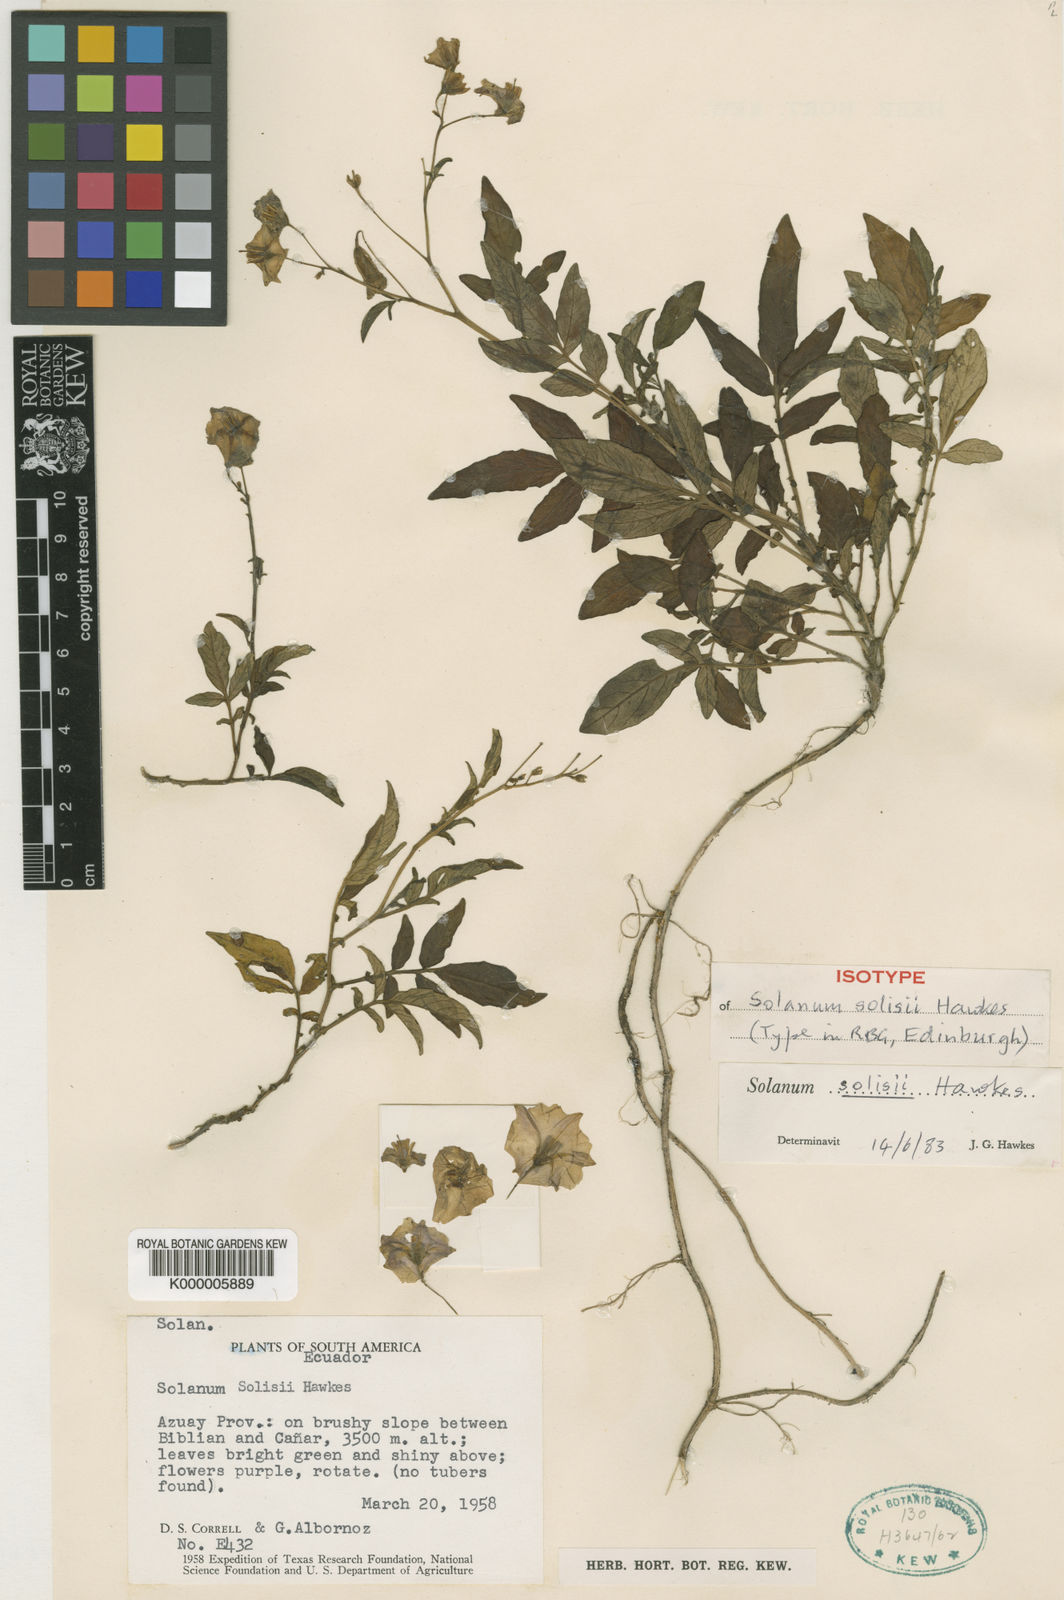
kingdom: Plantae
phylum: Tracheophyta
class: Magnoliopsida
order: Solanales
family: Solanaceae
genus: Solanum
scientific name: Solanum andreanum
